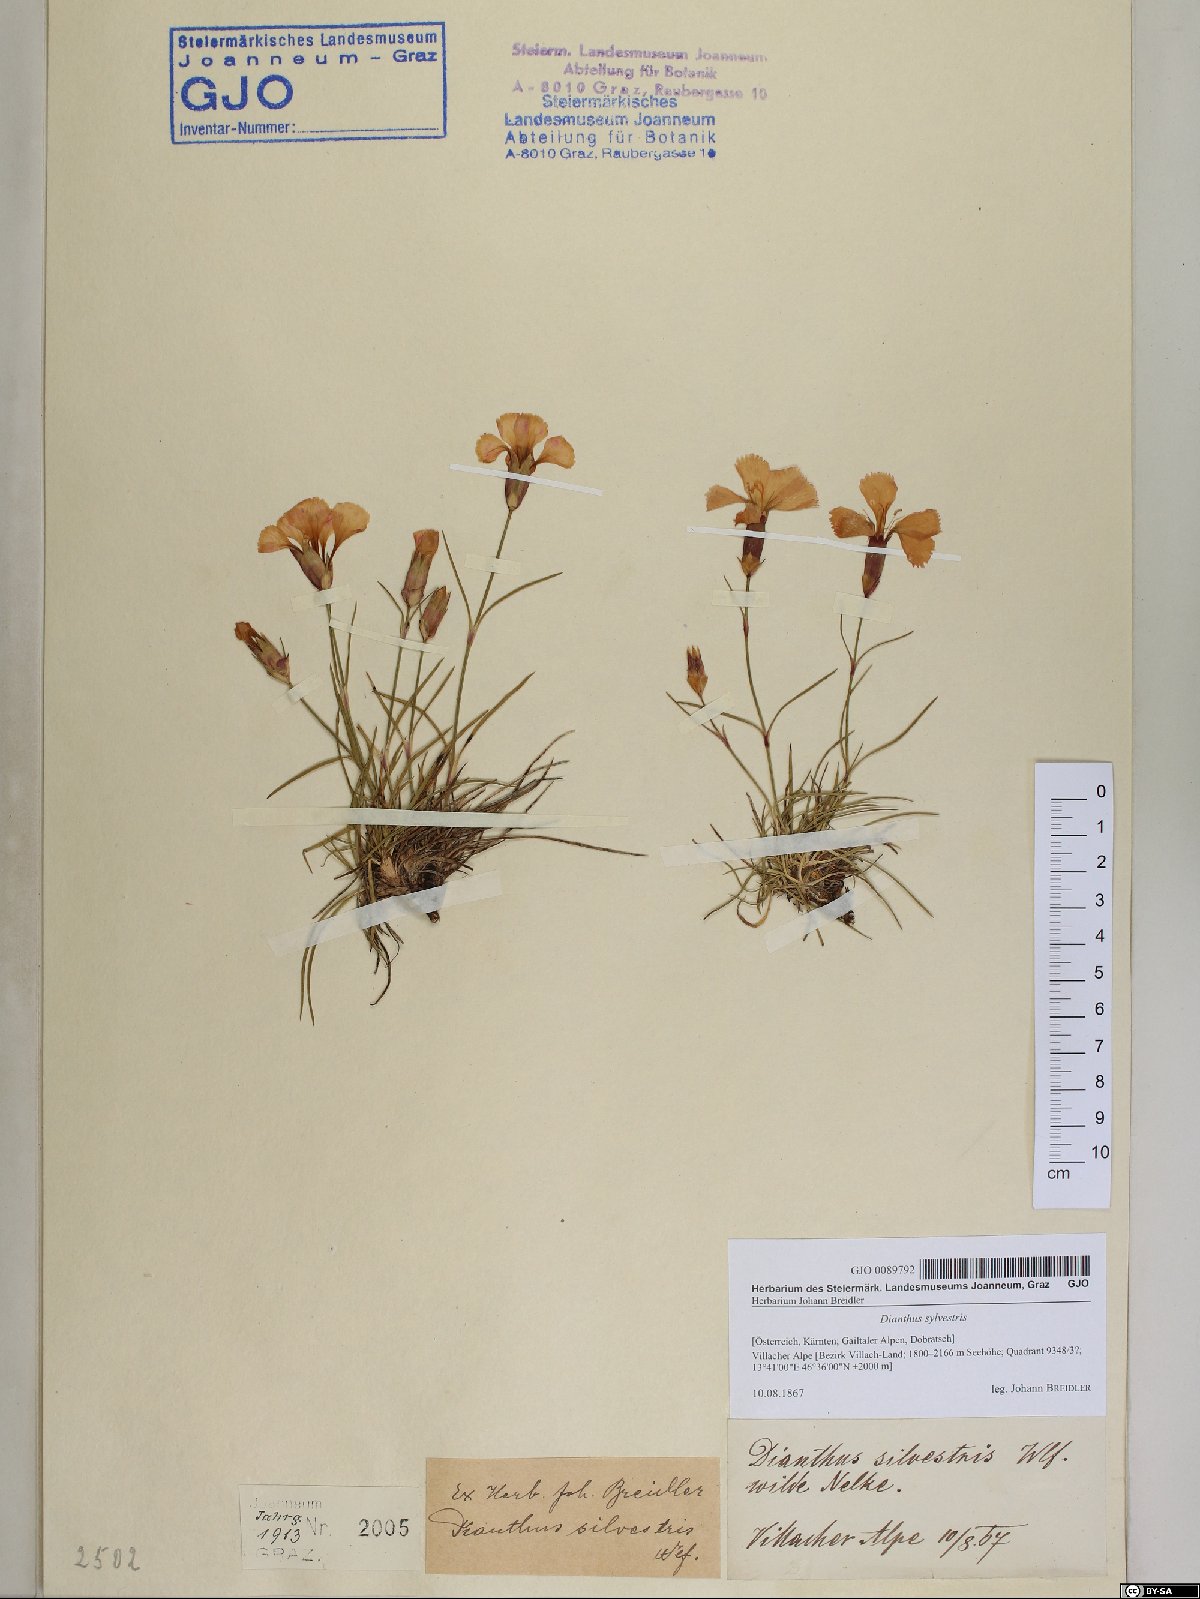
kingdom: Plantae
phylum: Tracheophyta
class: Magnoliopsida
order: Caryophyllales
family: Caryophyllaceae
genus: Dianthus
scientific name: Dianthus sylvestris
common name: Wood pink
